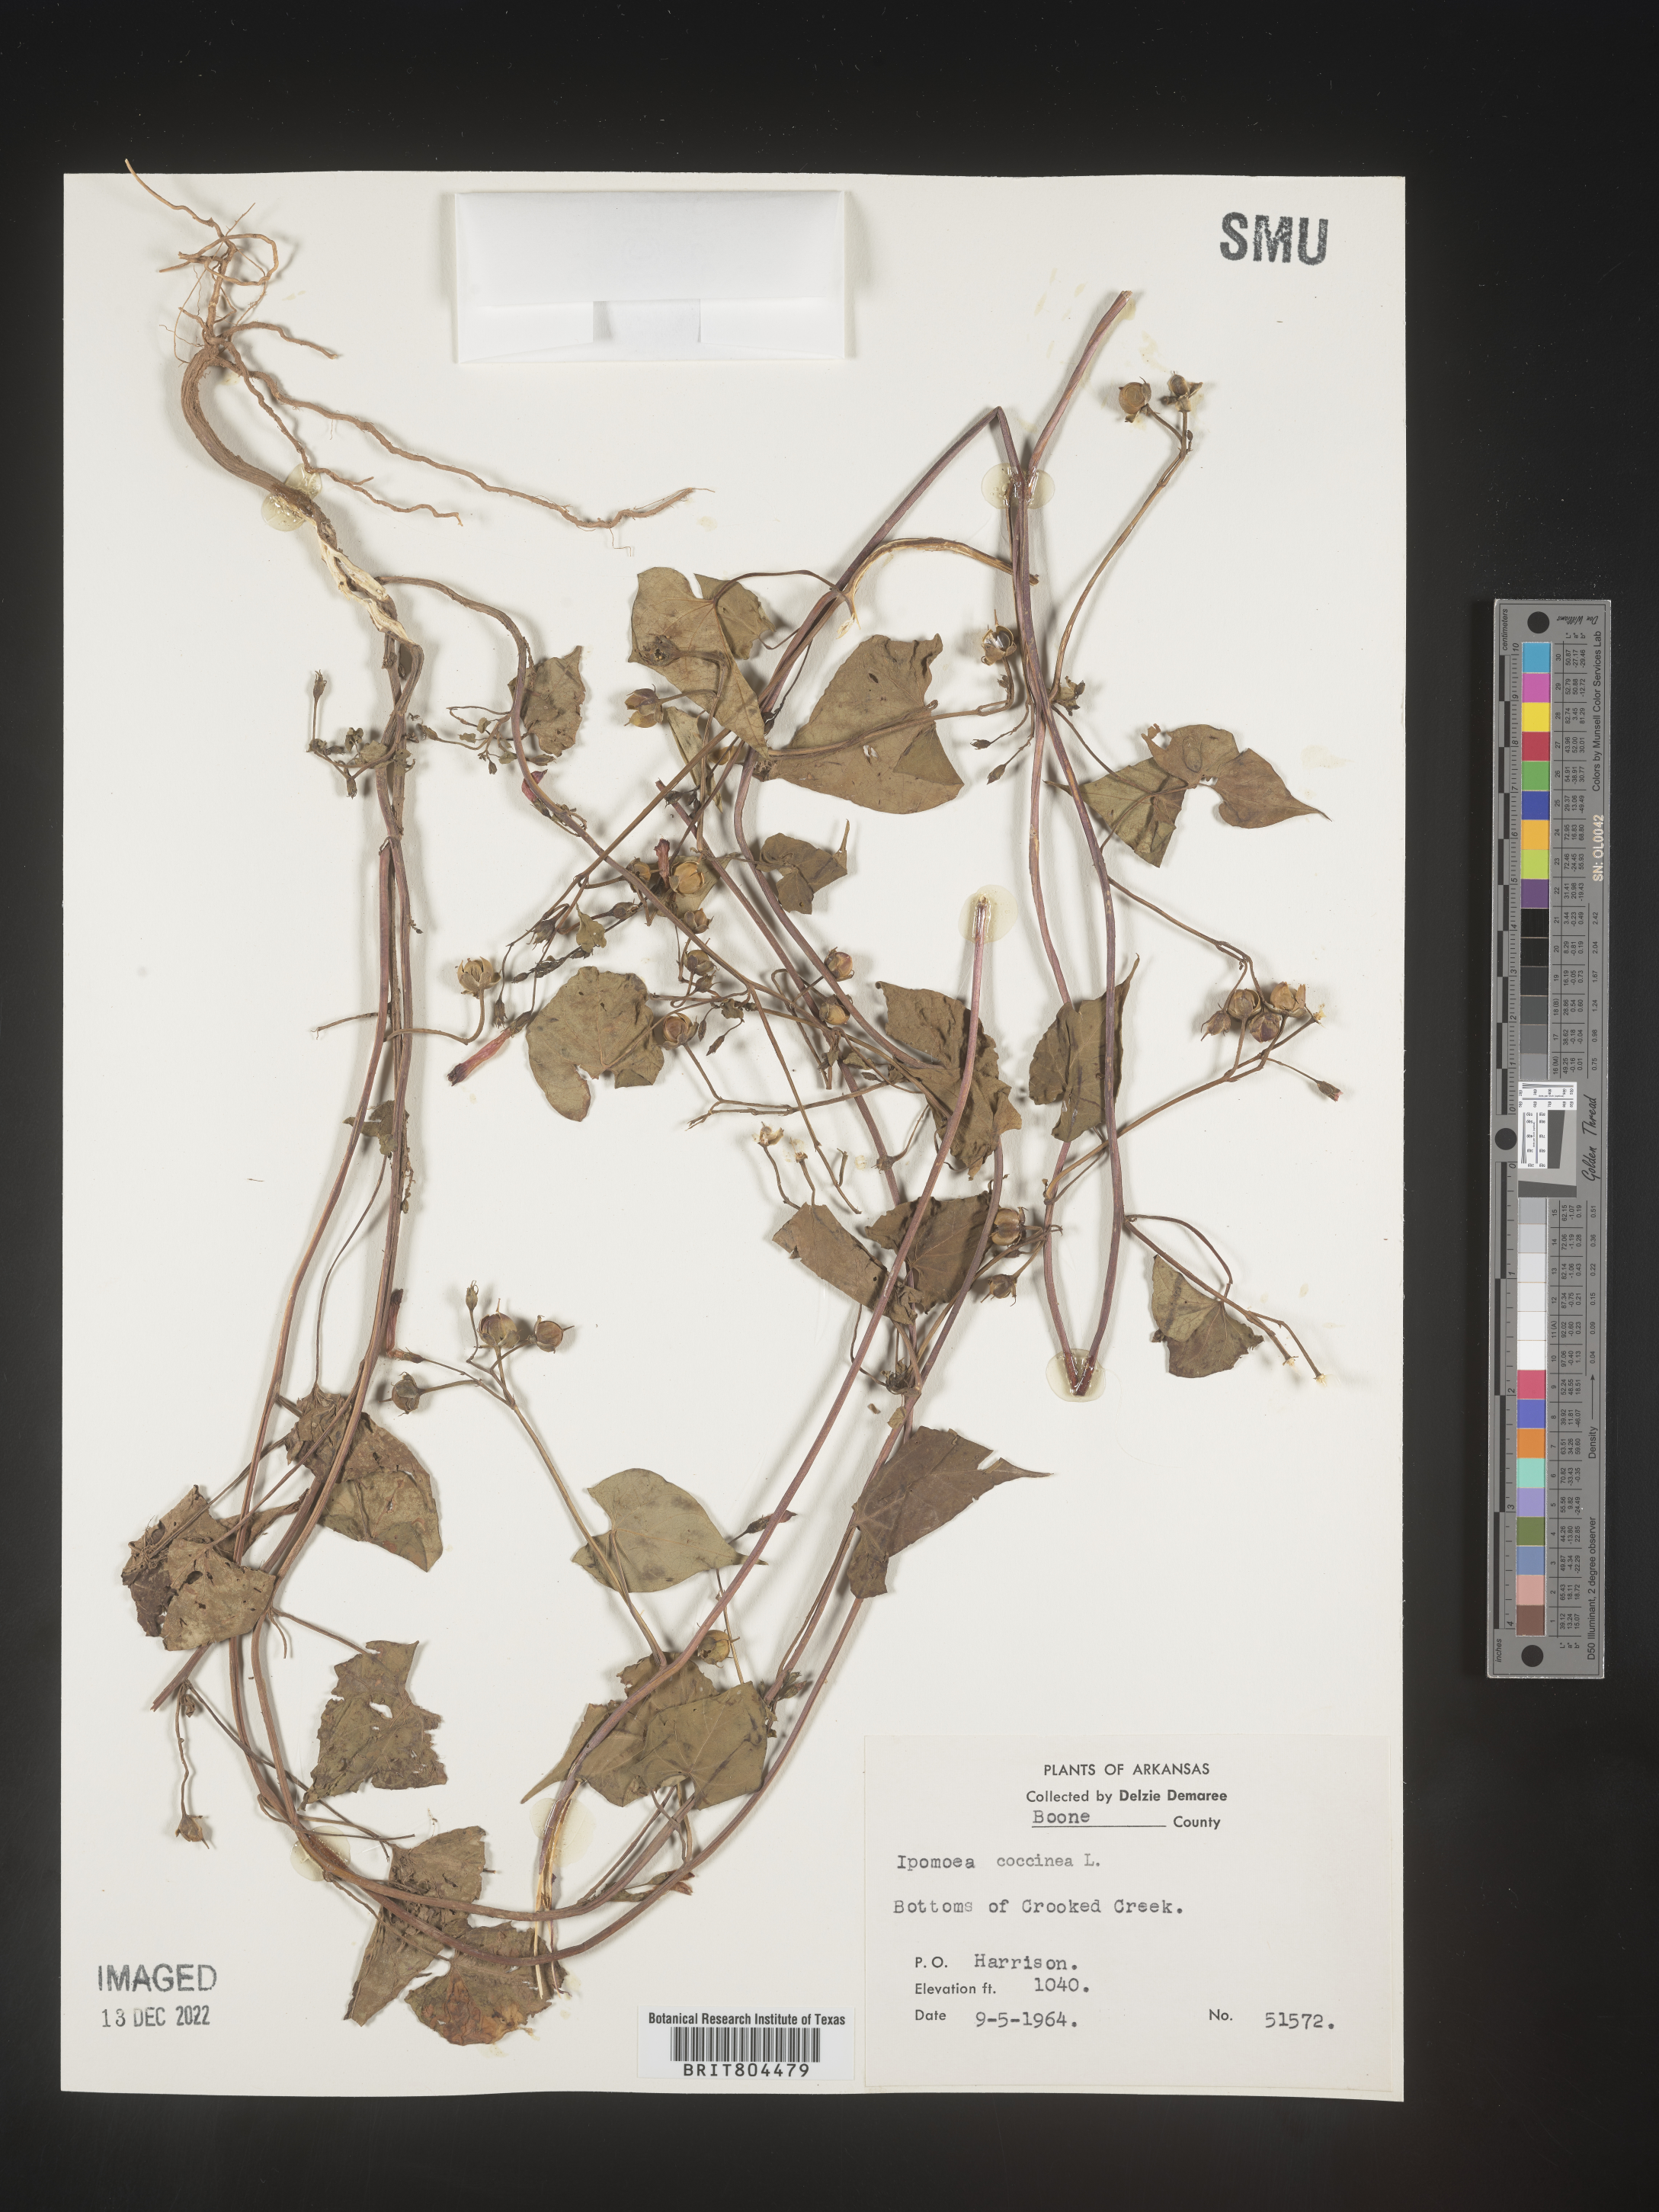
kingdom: Plantae
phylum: Tracheophyta
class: Magnoliopsida
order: Solanales
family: Convolvulaceae
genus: Ipomoea
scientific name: Ipomoea coccinea
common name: Red morning-glory
